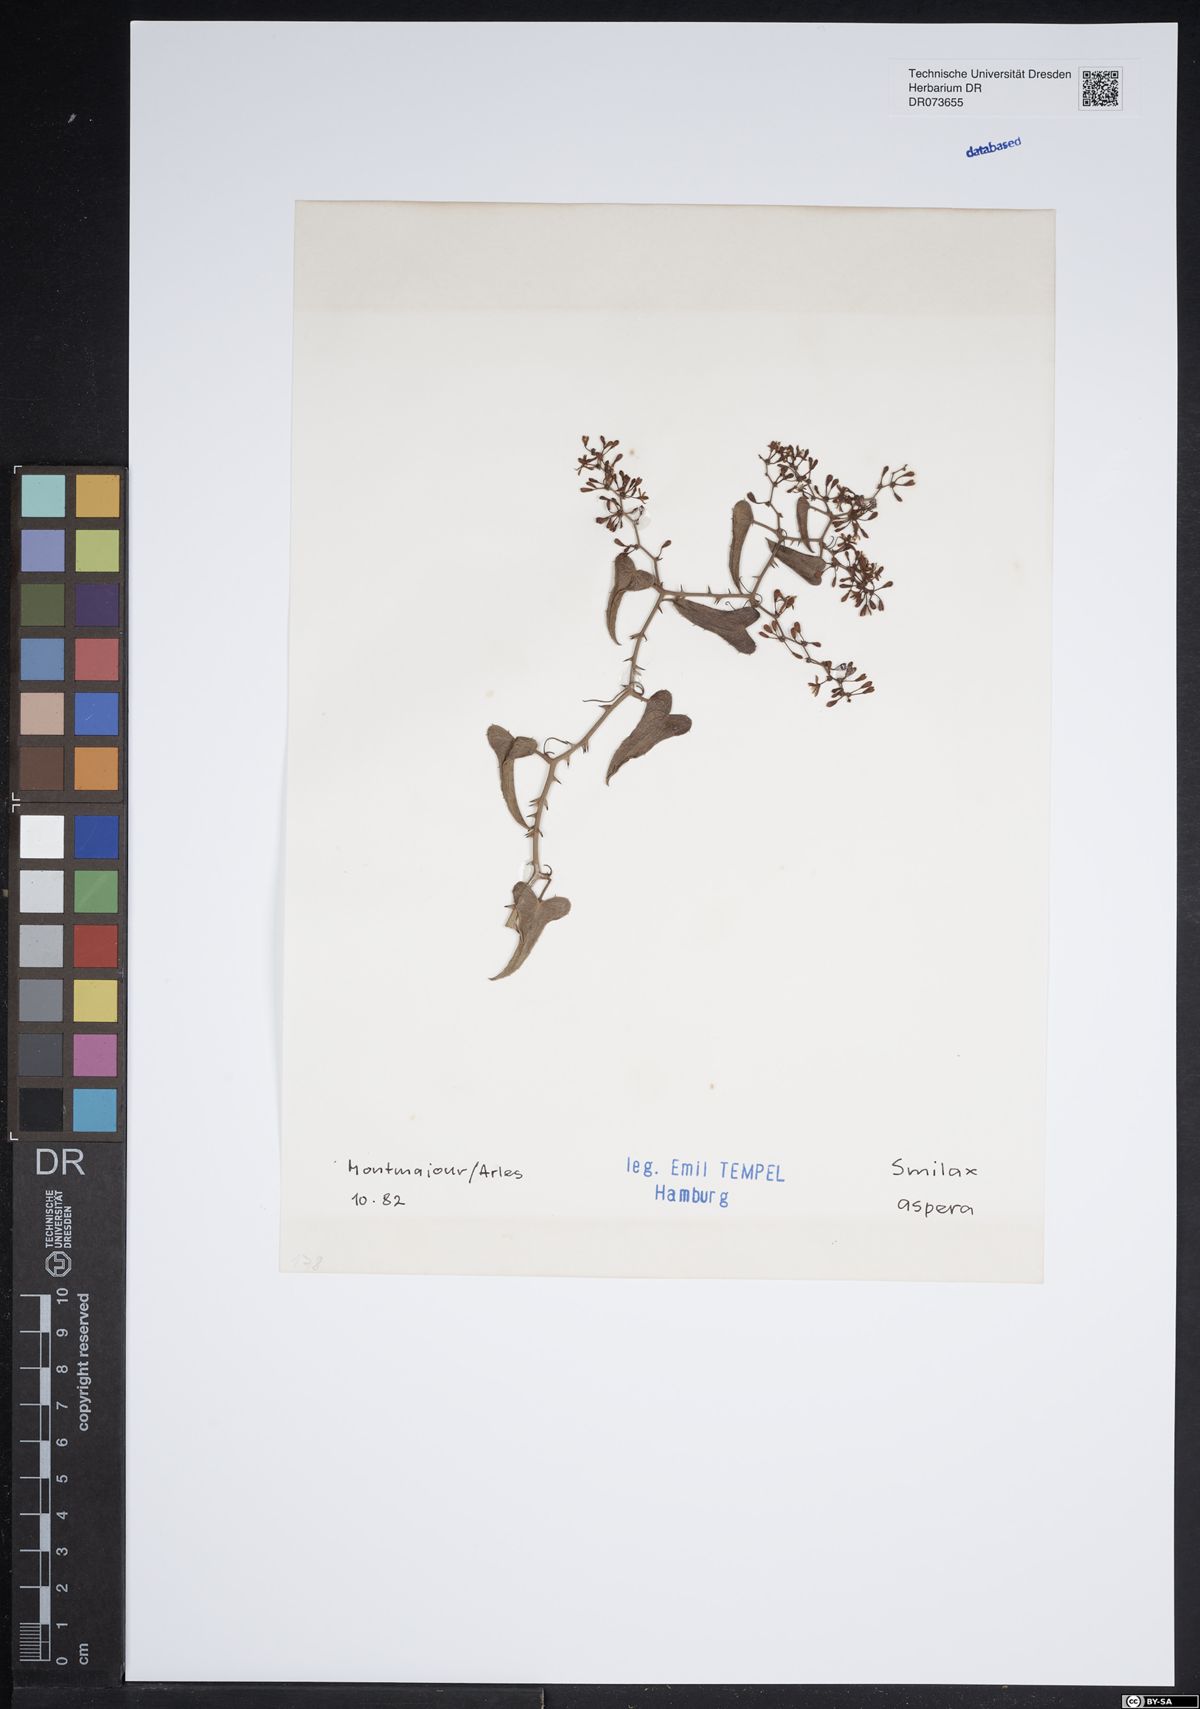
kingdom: Plantae
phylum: Tracheophyta
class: Liliopsida
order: Liliales
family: Smilacaceae
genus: Smilax
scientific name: Smilax aspera
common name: Common smilax
